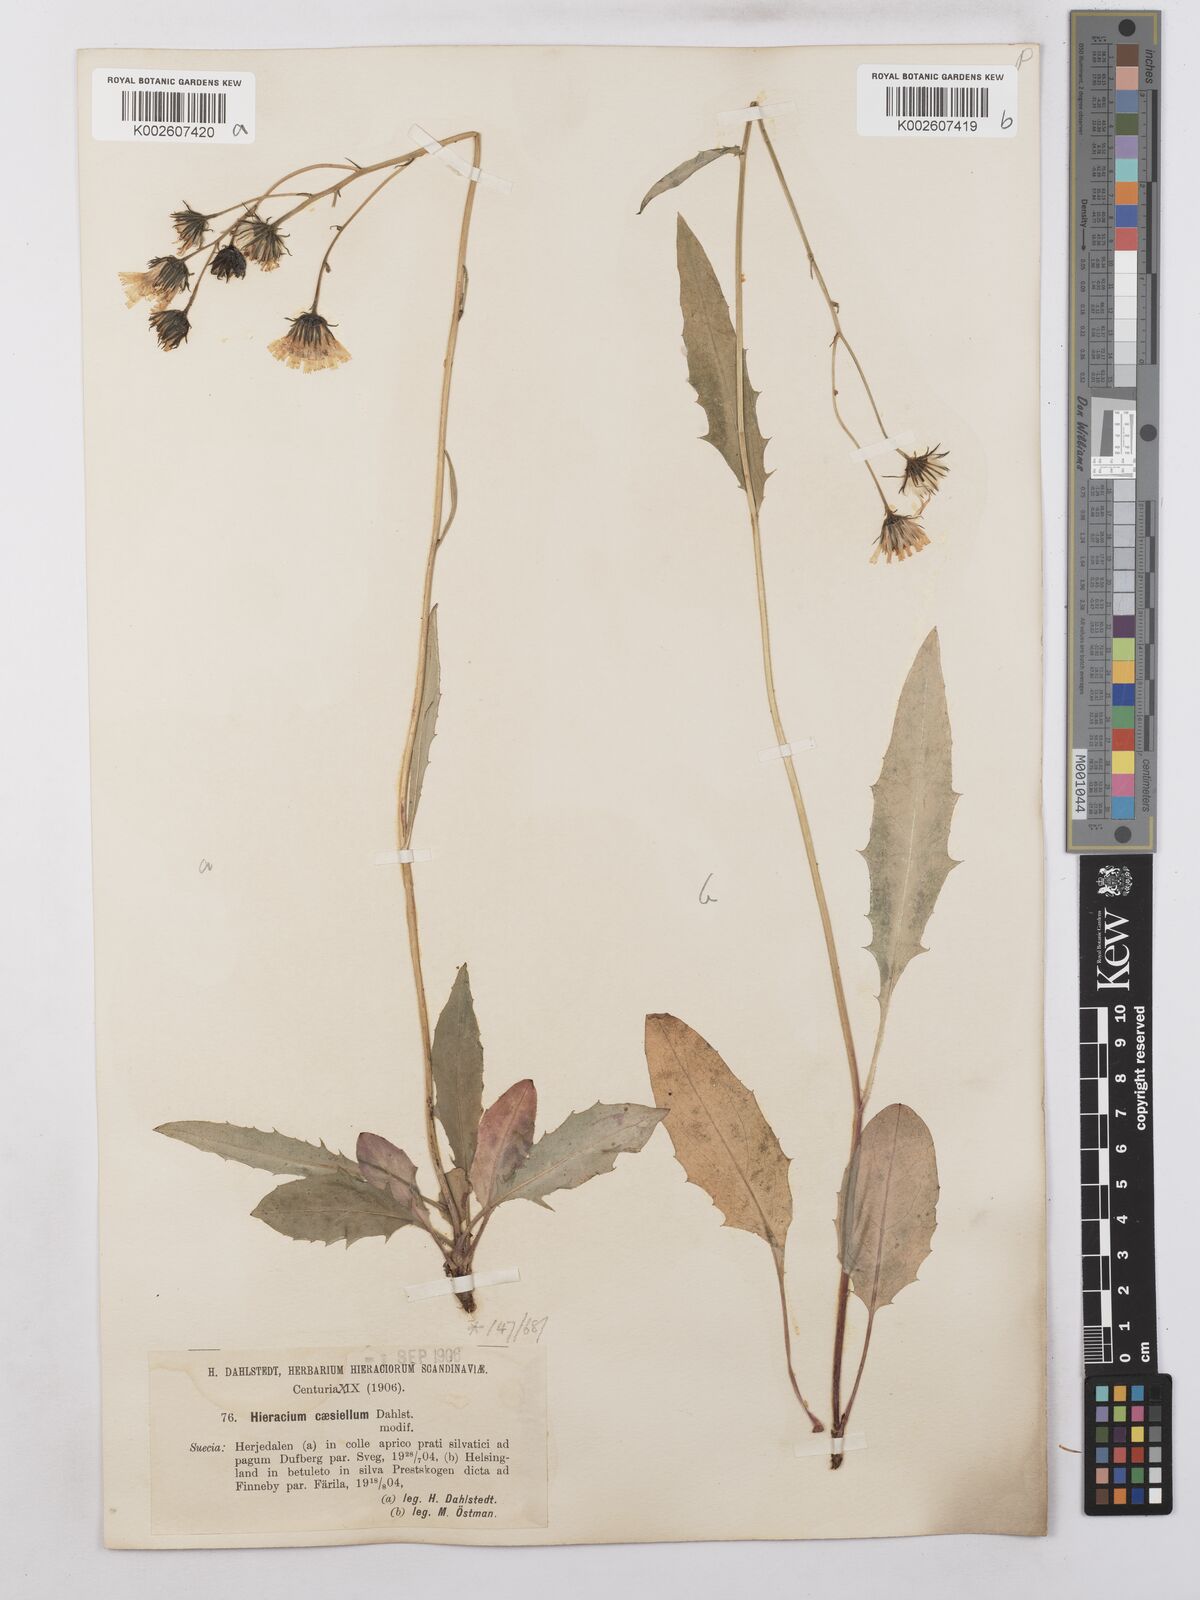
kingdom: Plantae
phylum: Tracheophyta
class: Magnoliopsida
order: Asterales
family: Asteraceae
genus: Hieracium
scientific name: Hieracium caesium
